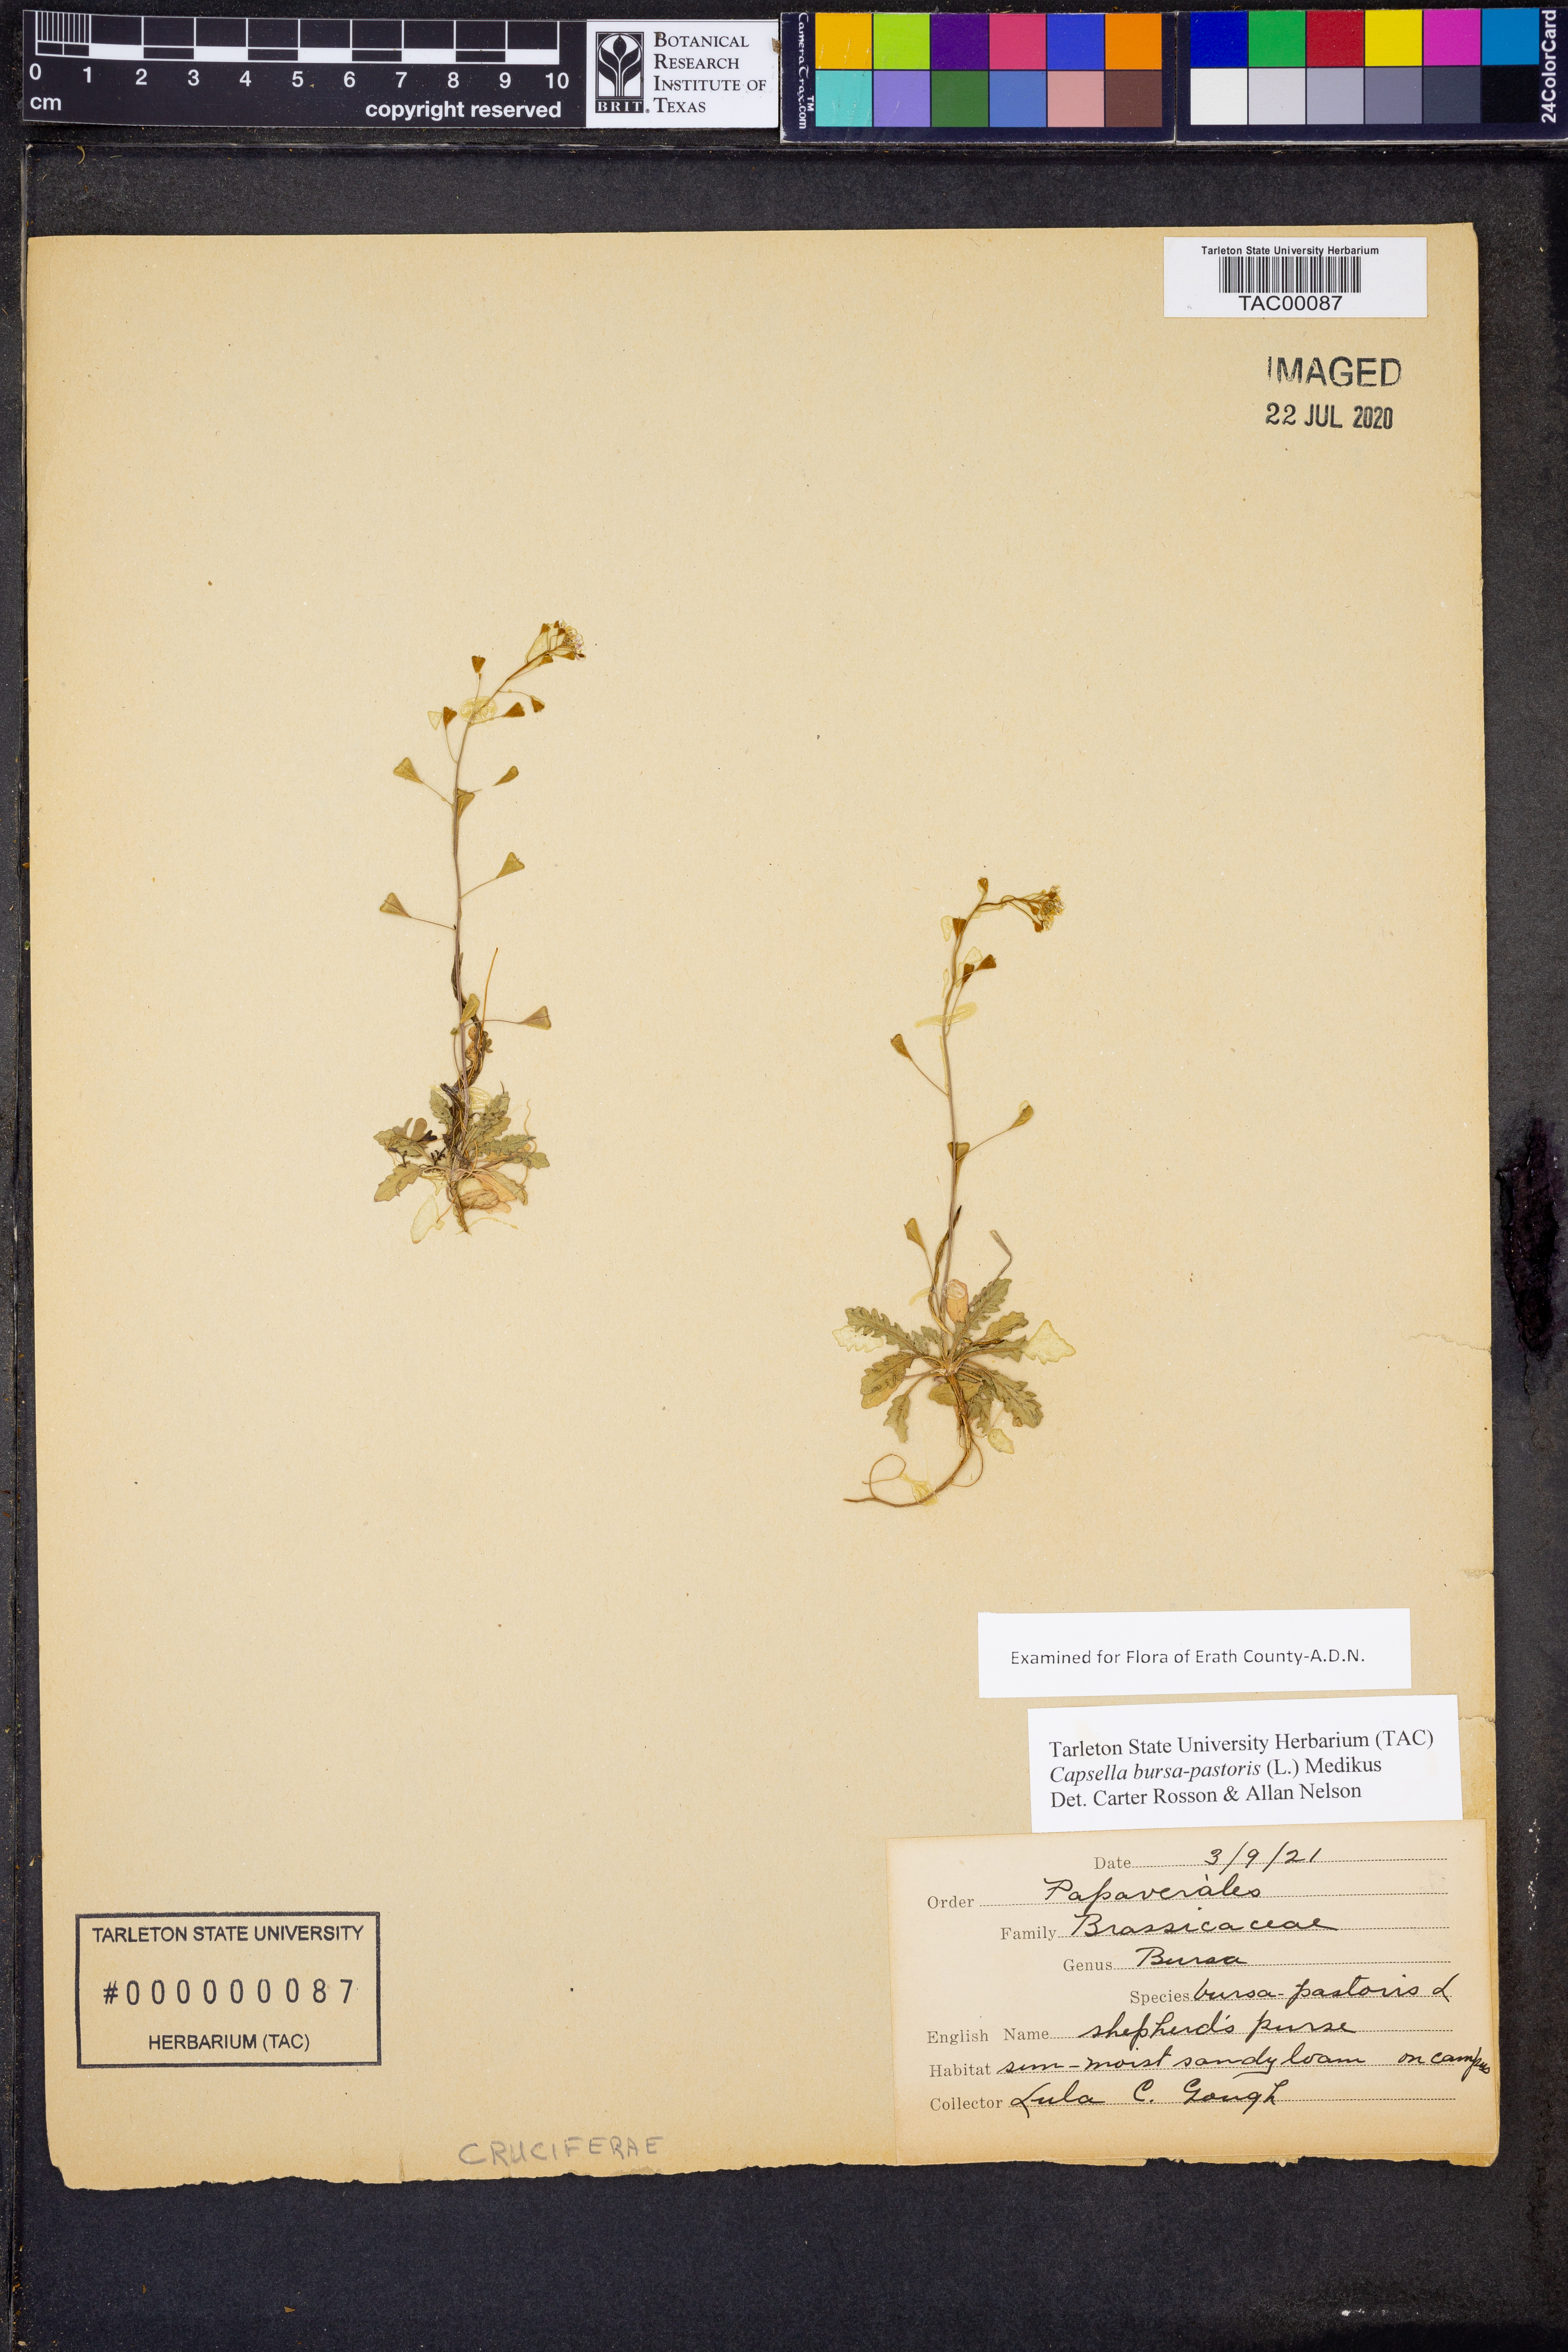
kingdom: Plantae
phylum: Tracheophyta
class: Magnoliopsida
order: Brassicales
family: Brassicaceae
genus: Capsella
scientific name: Capsella bursa-pastoris
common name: Shepherd's purse
